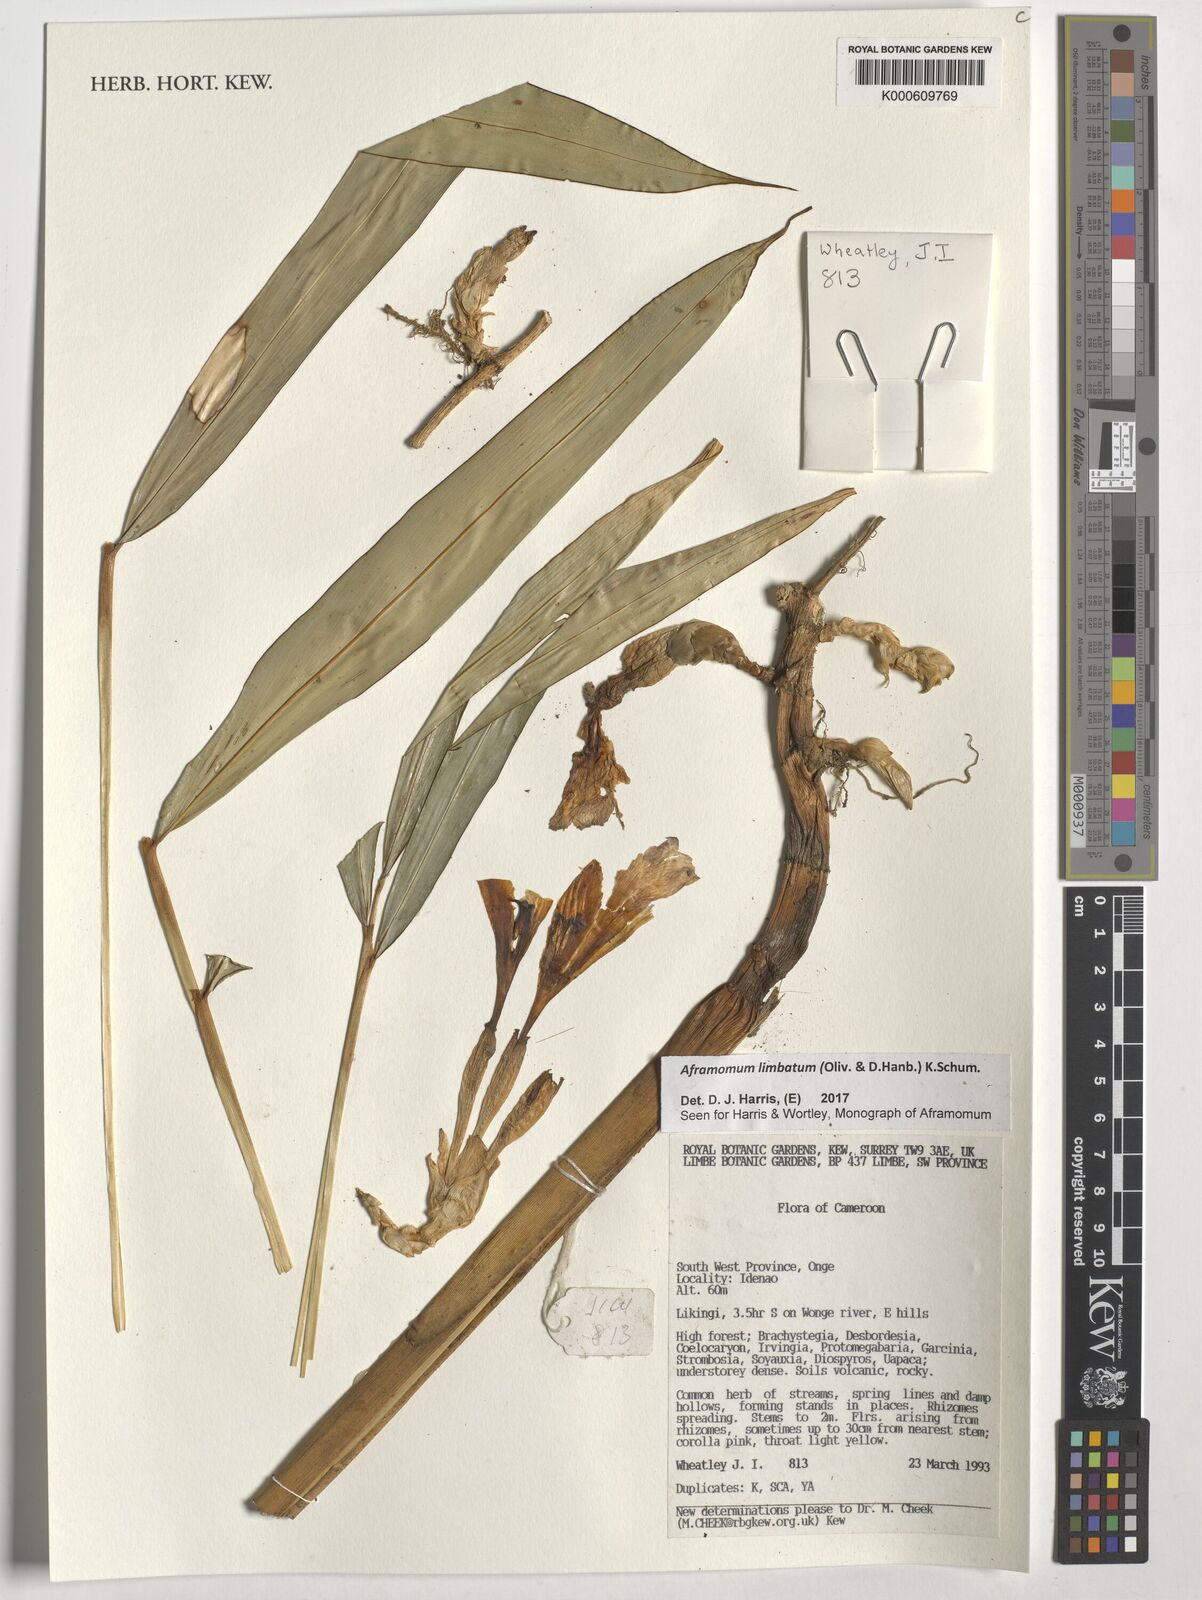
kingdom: Plantae
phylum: Tracheophyta
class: Liliopsida
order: Zingiberales
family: Zingiberaceae
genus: Aframomum
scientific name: Aframomum limbatum
